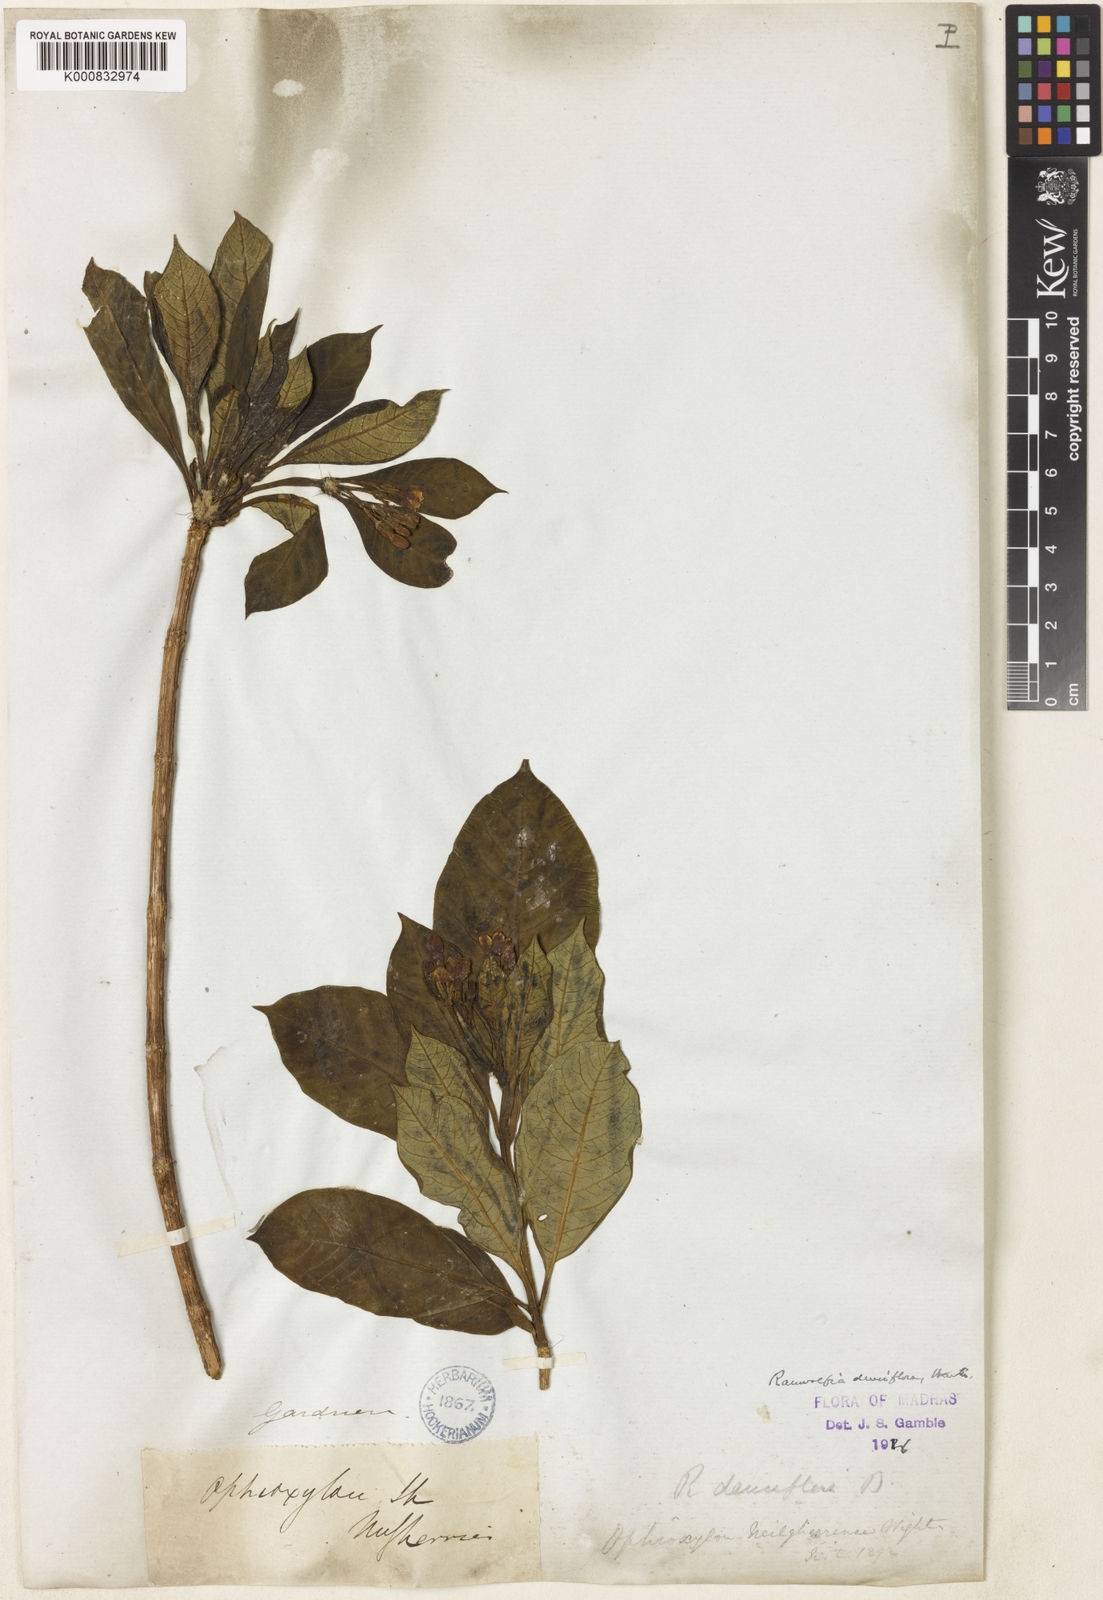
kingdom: Plantae
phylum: Tracheophyta
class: Magnoliopsida
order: Gentianales
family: Apocynaceae
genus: Rauvolfia
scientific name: Rauvolfia verticillata
